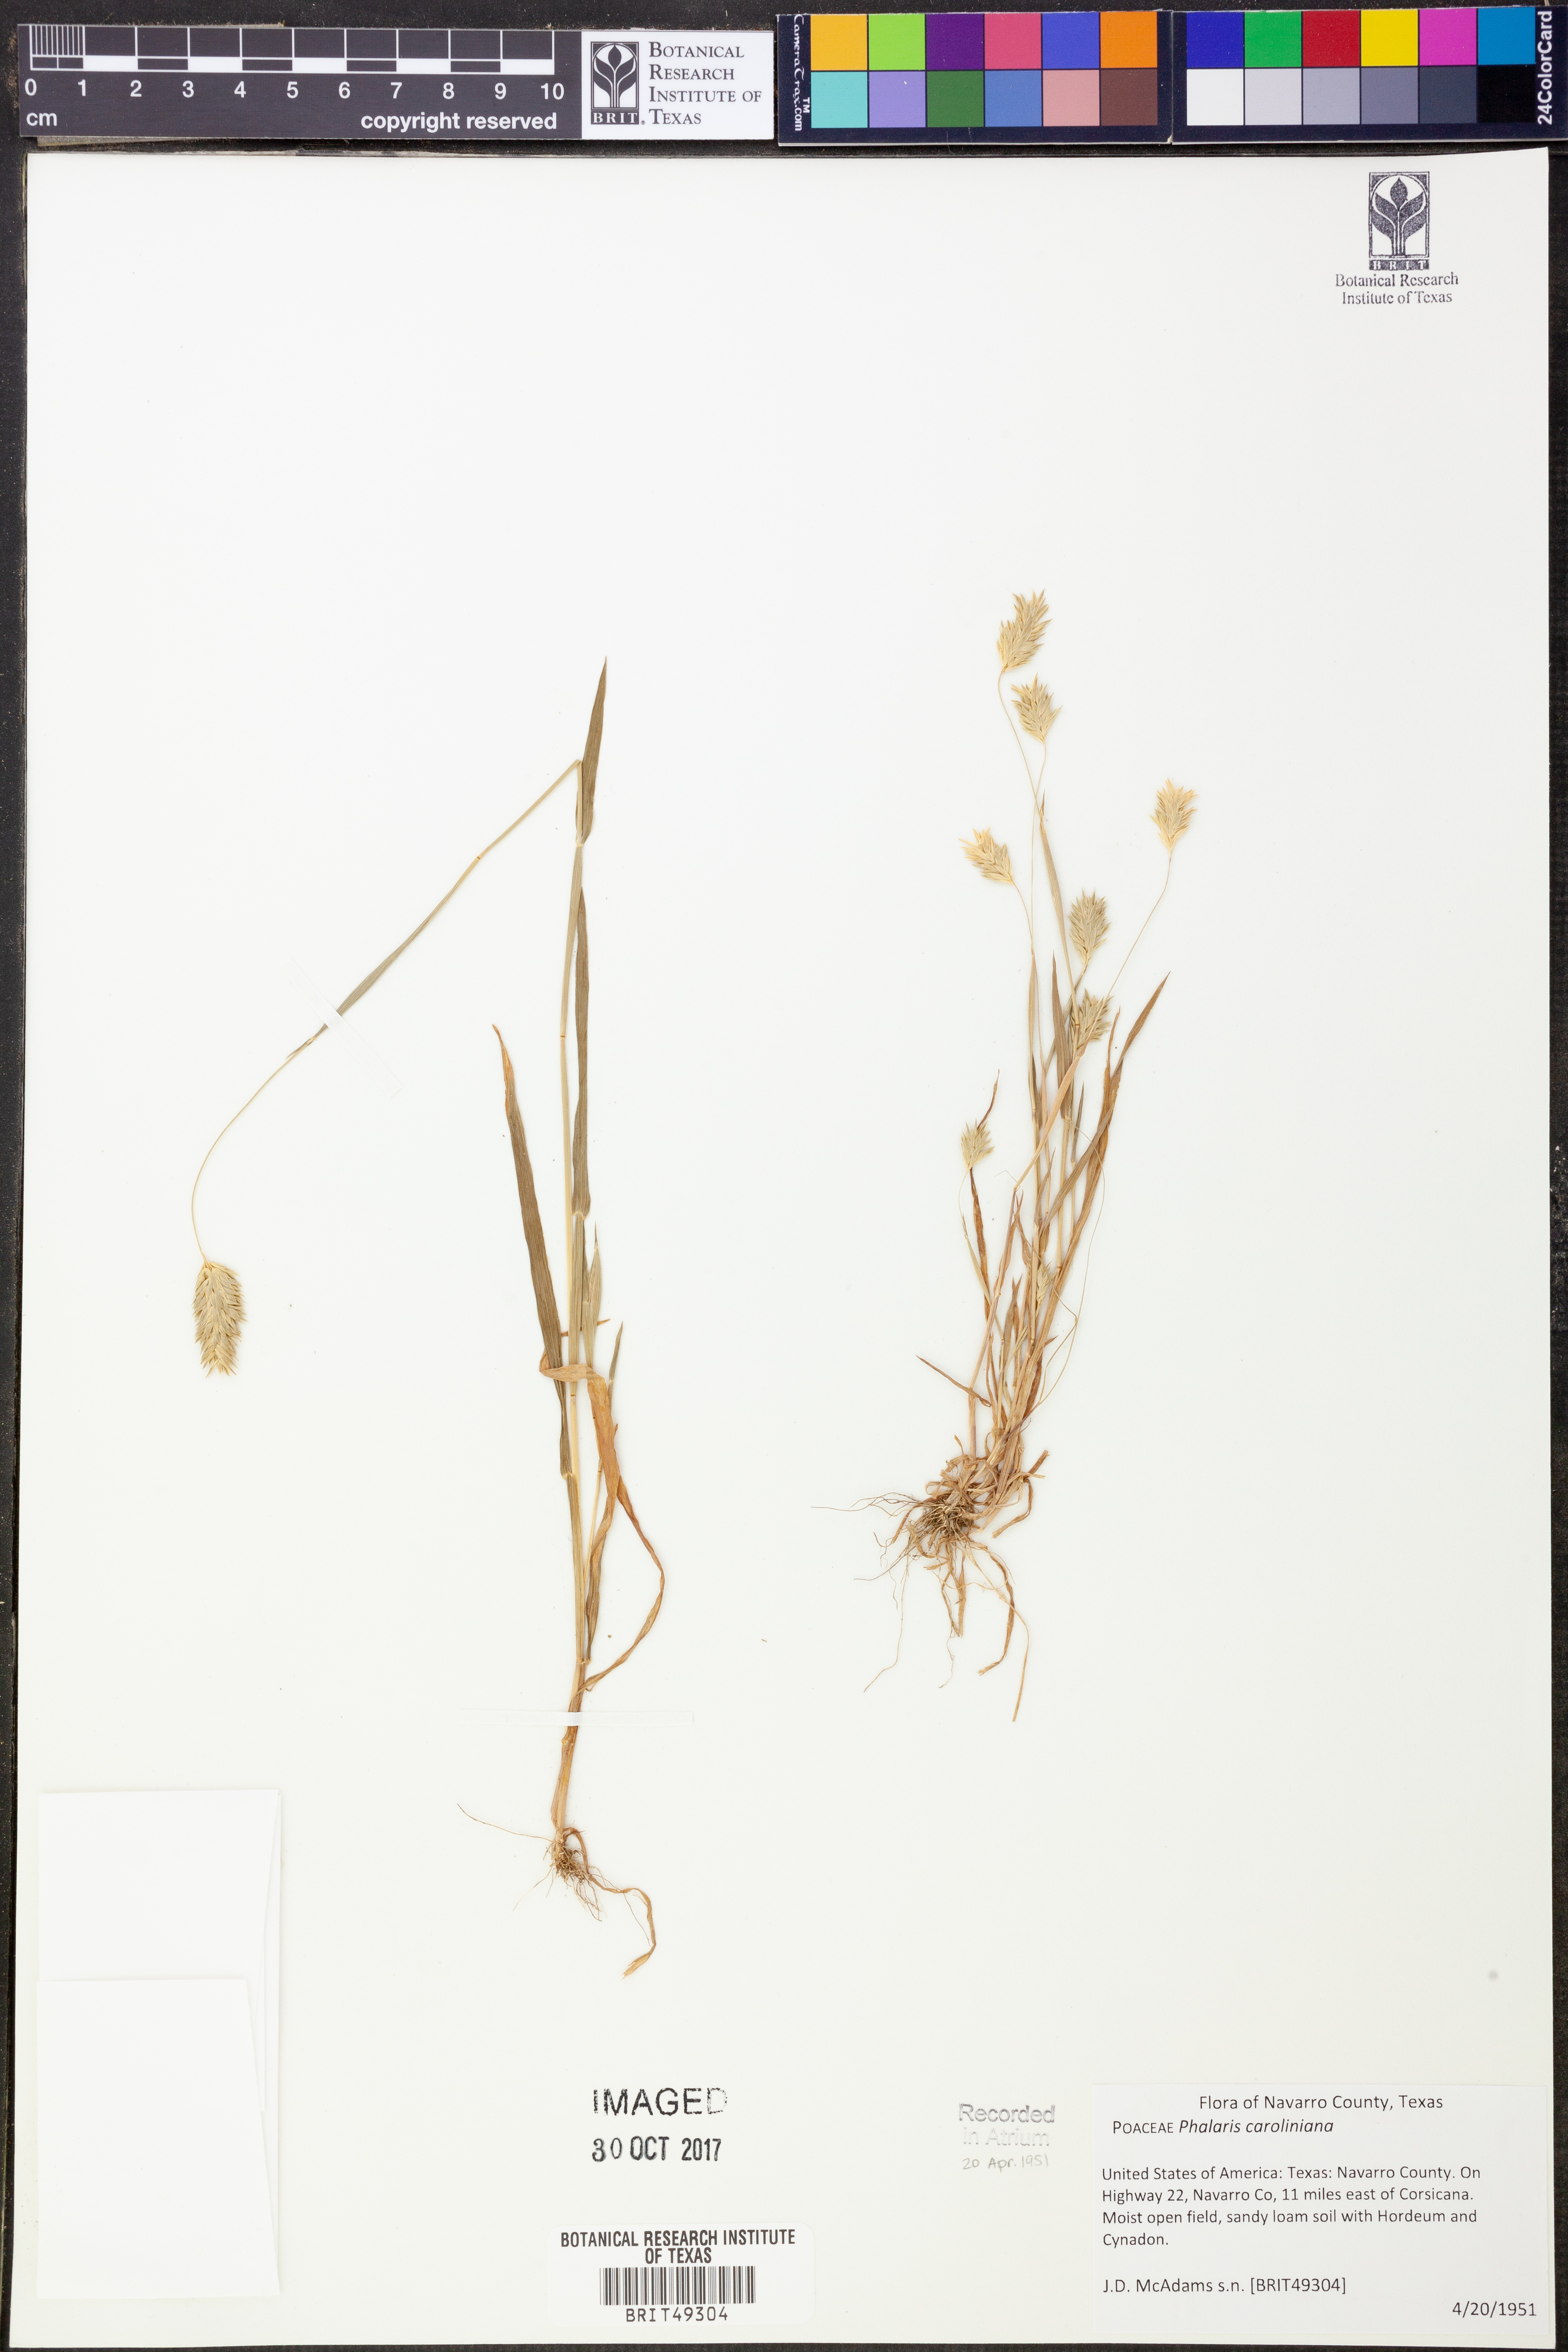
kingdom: Plantae
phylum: Tracheophyta
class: Liliopsida
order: Poales
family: Poaceae
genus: Phalaris
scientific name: Phalaris caroliniana
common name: May grass
